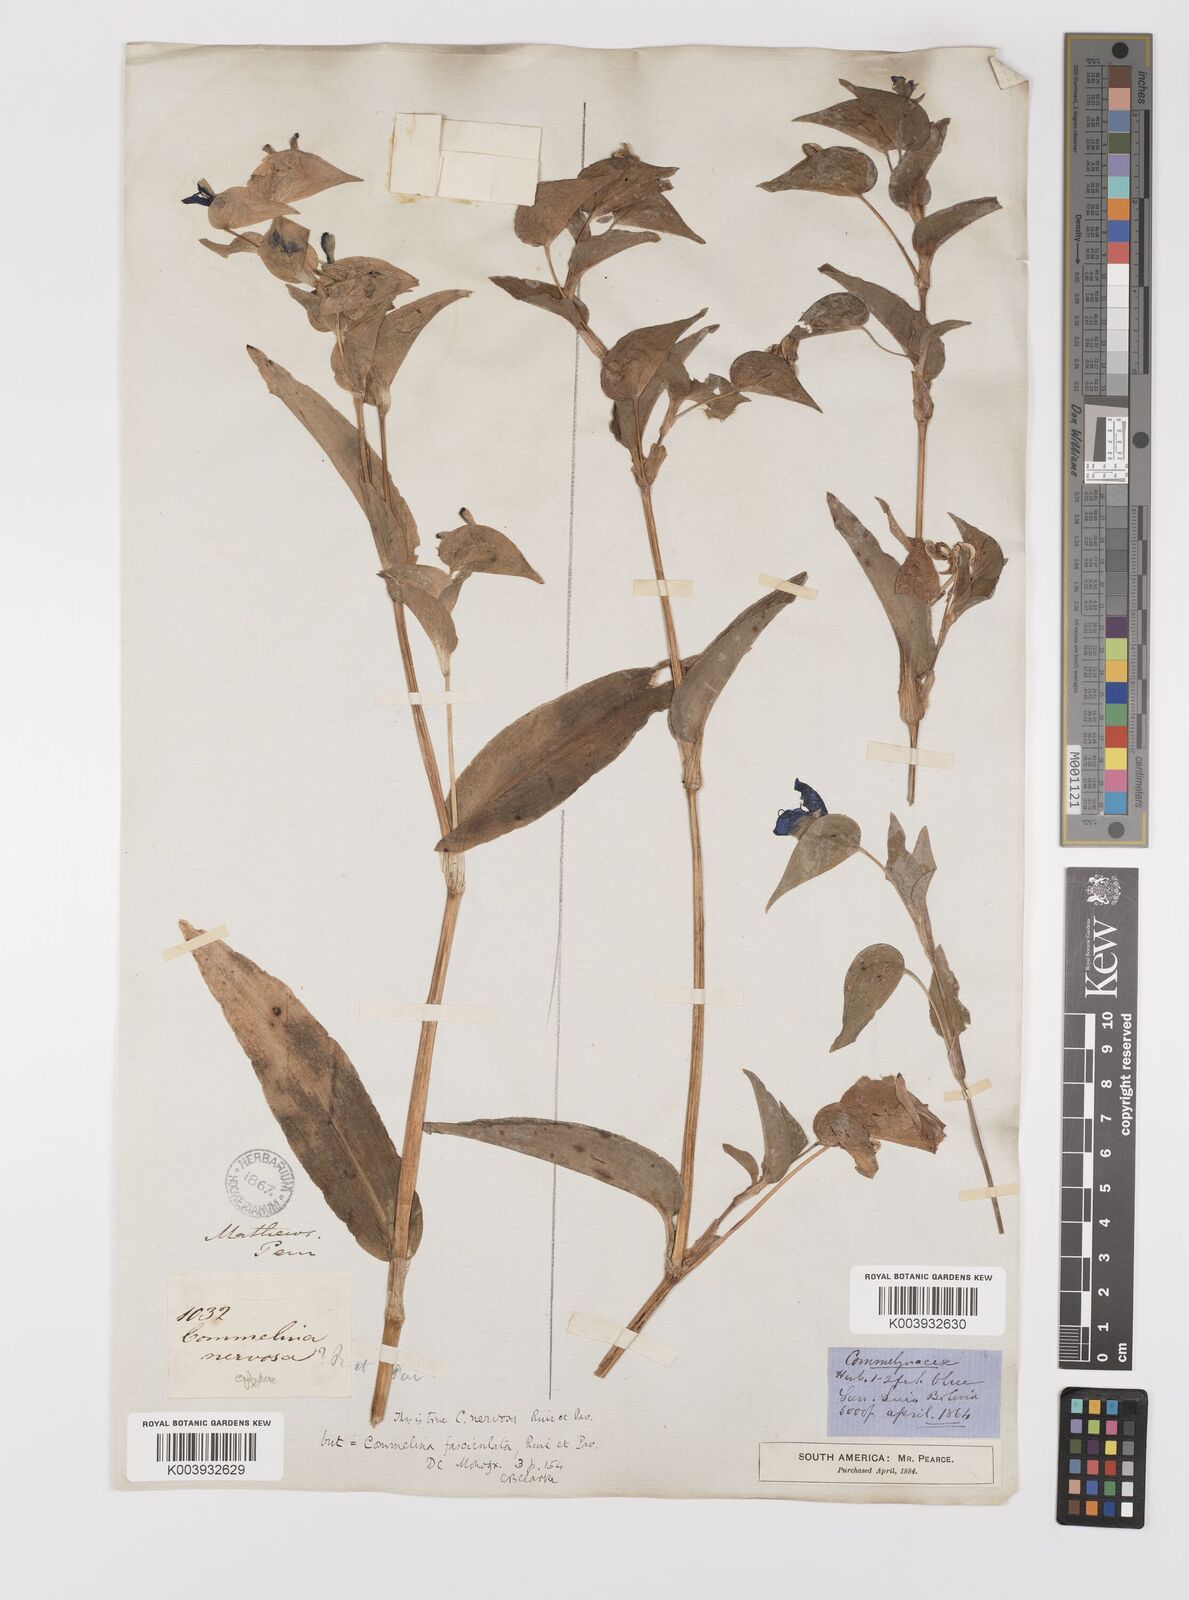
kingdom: Plantae
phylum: Tracheophyta
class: Liliopsida
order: Commelinales
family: Commelinaceae
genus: Commelina
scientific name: Commelina tuberosa
